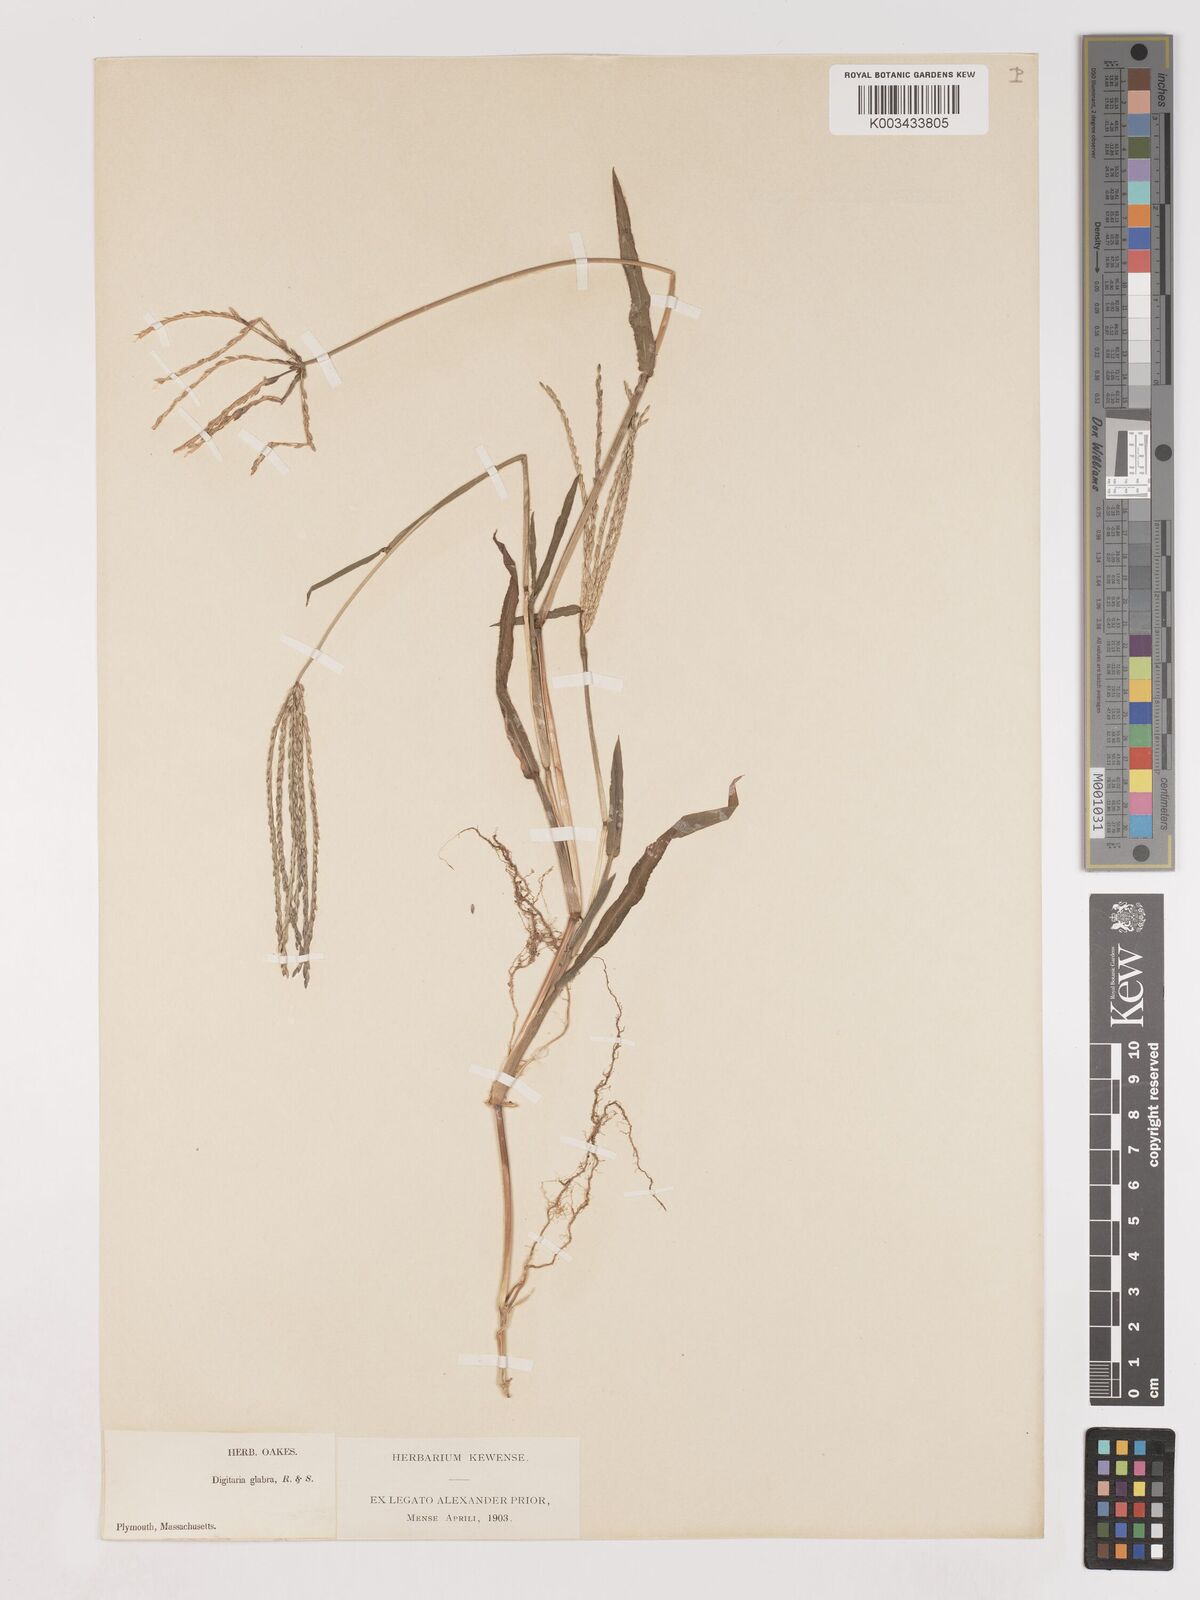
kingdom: Plantae
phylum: Tracheophyta
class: Liliopsida
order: Poales
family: Poaceae
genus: Digitaria
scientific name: Digitaria sanguinalis
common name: Hairy crabgrass
